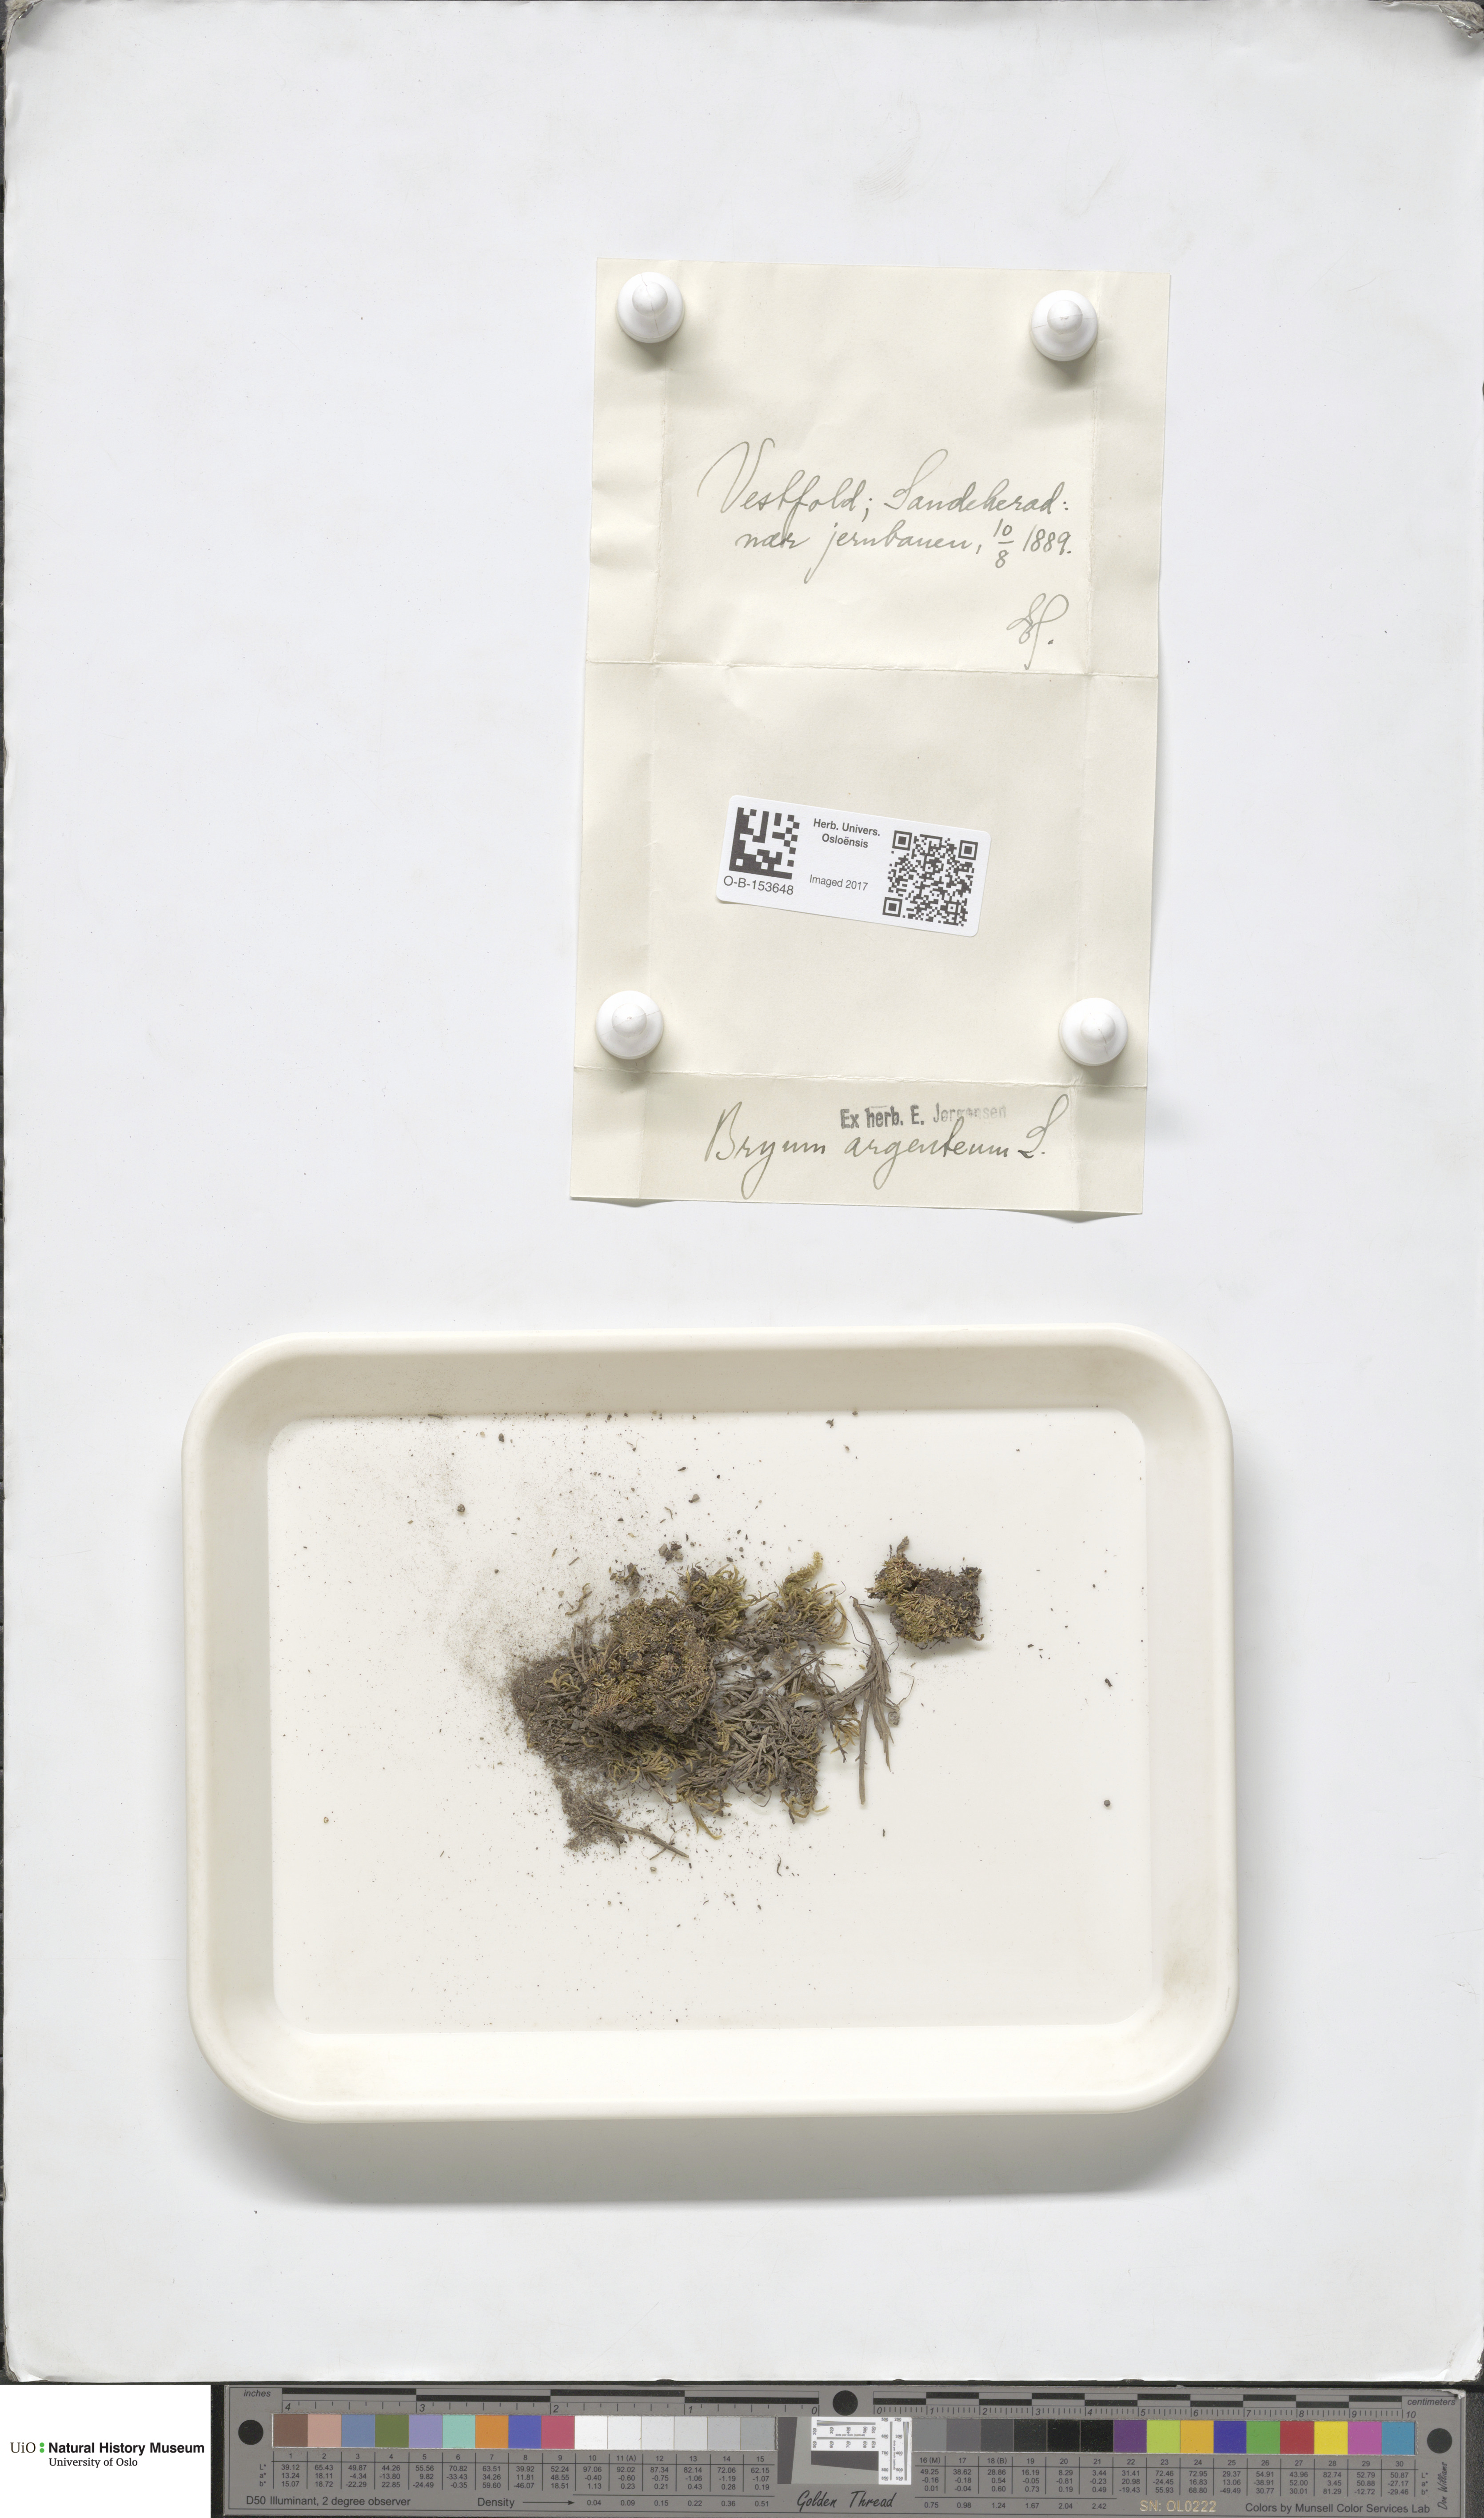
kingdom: Plantae
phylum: Bryophyta
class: Bryopsida
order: Bryales
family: Bryaceae
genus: Bryum
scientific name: Bryum argenteum
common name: Silver-moss
